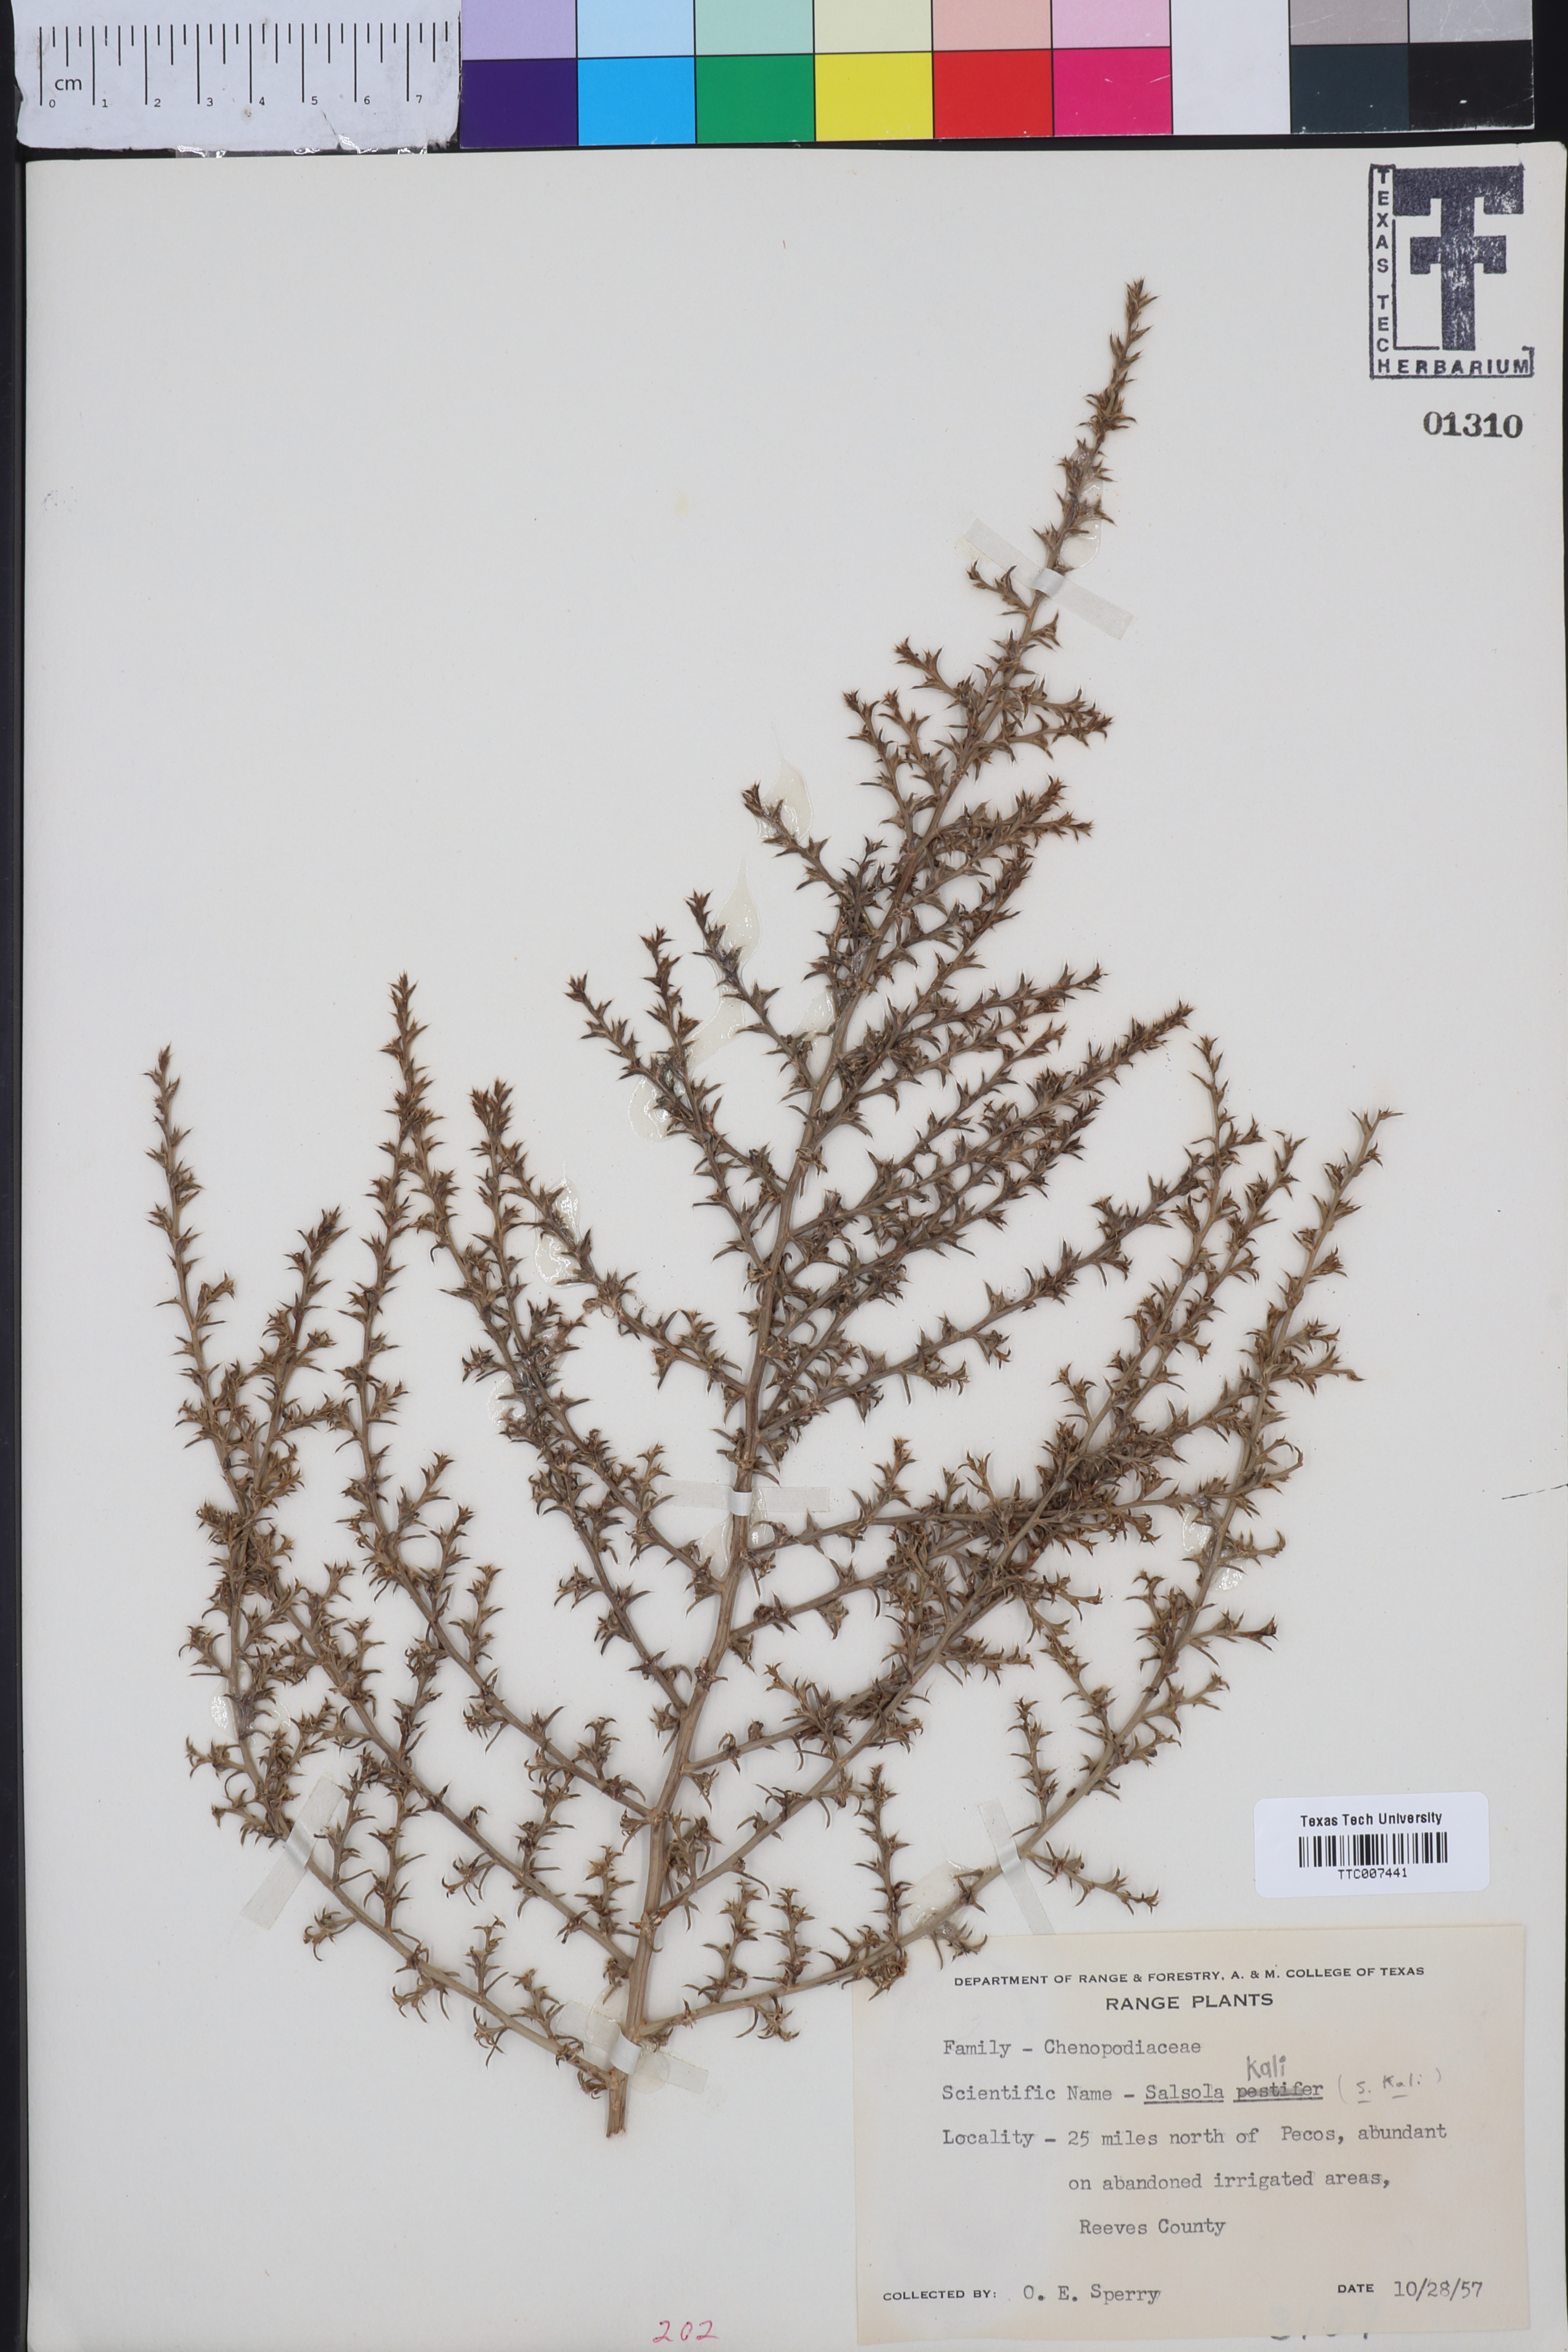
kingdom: Plantae
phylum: Tracheophyta
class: Magnoliopsida
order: Caryophyllales
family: Amaranthaceae
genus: Salsola
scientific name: Salsola kali
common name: Saltwort
